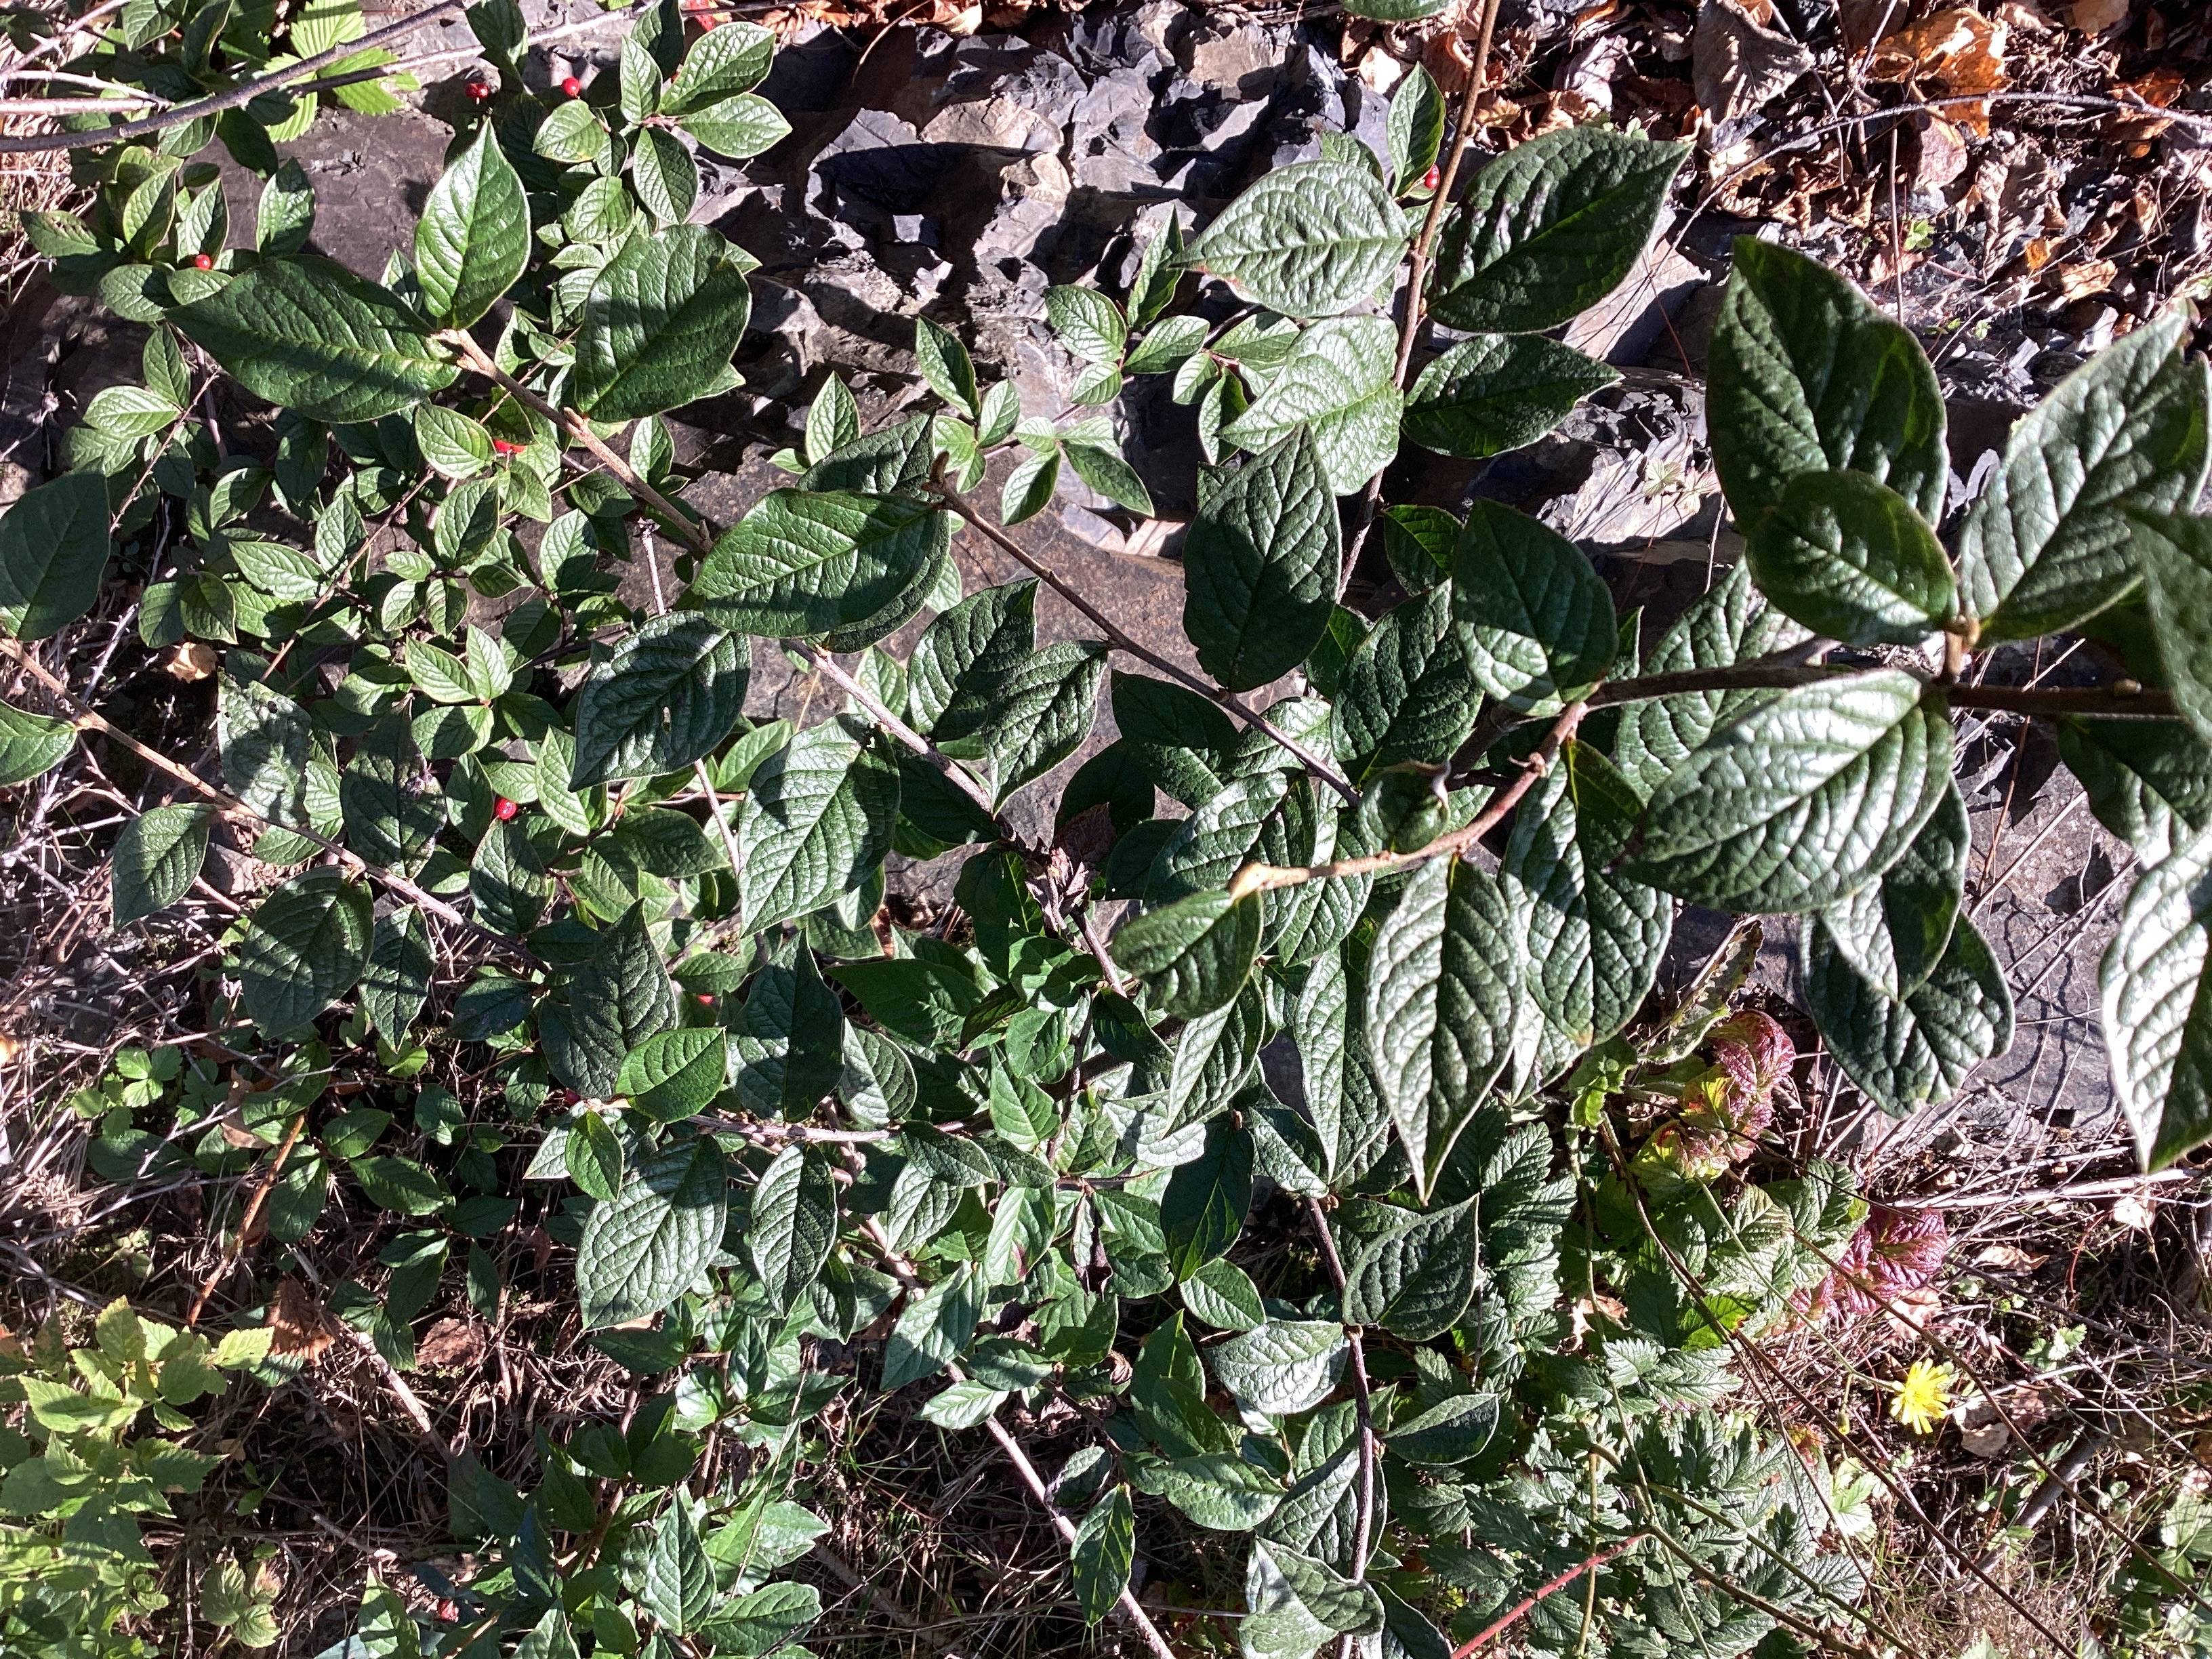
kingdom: Plantae
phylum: Tracheophyta
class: Magnoliopsida
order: Rosales
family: Rosaceae
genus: Cotoneaster
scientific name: Cotoneaster bullatus
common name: bulkemispel
